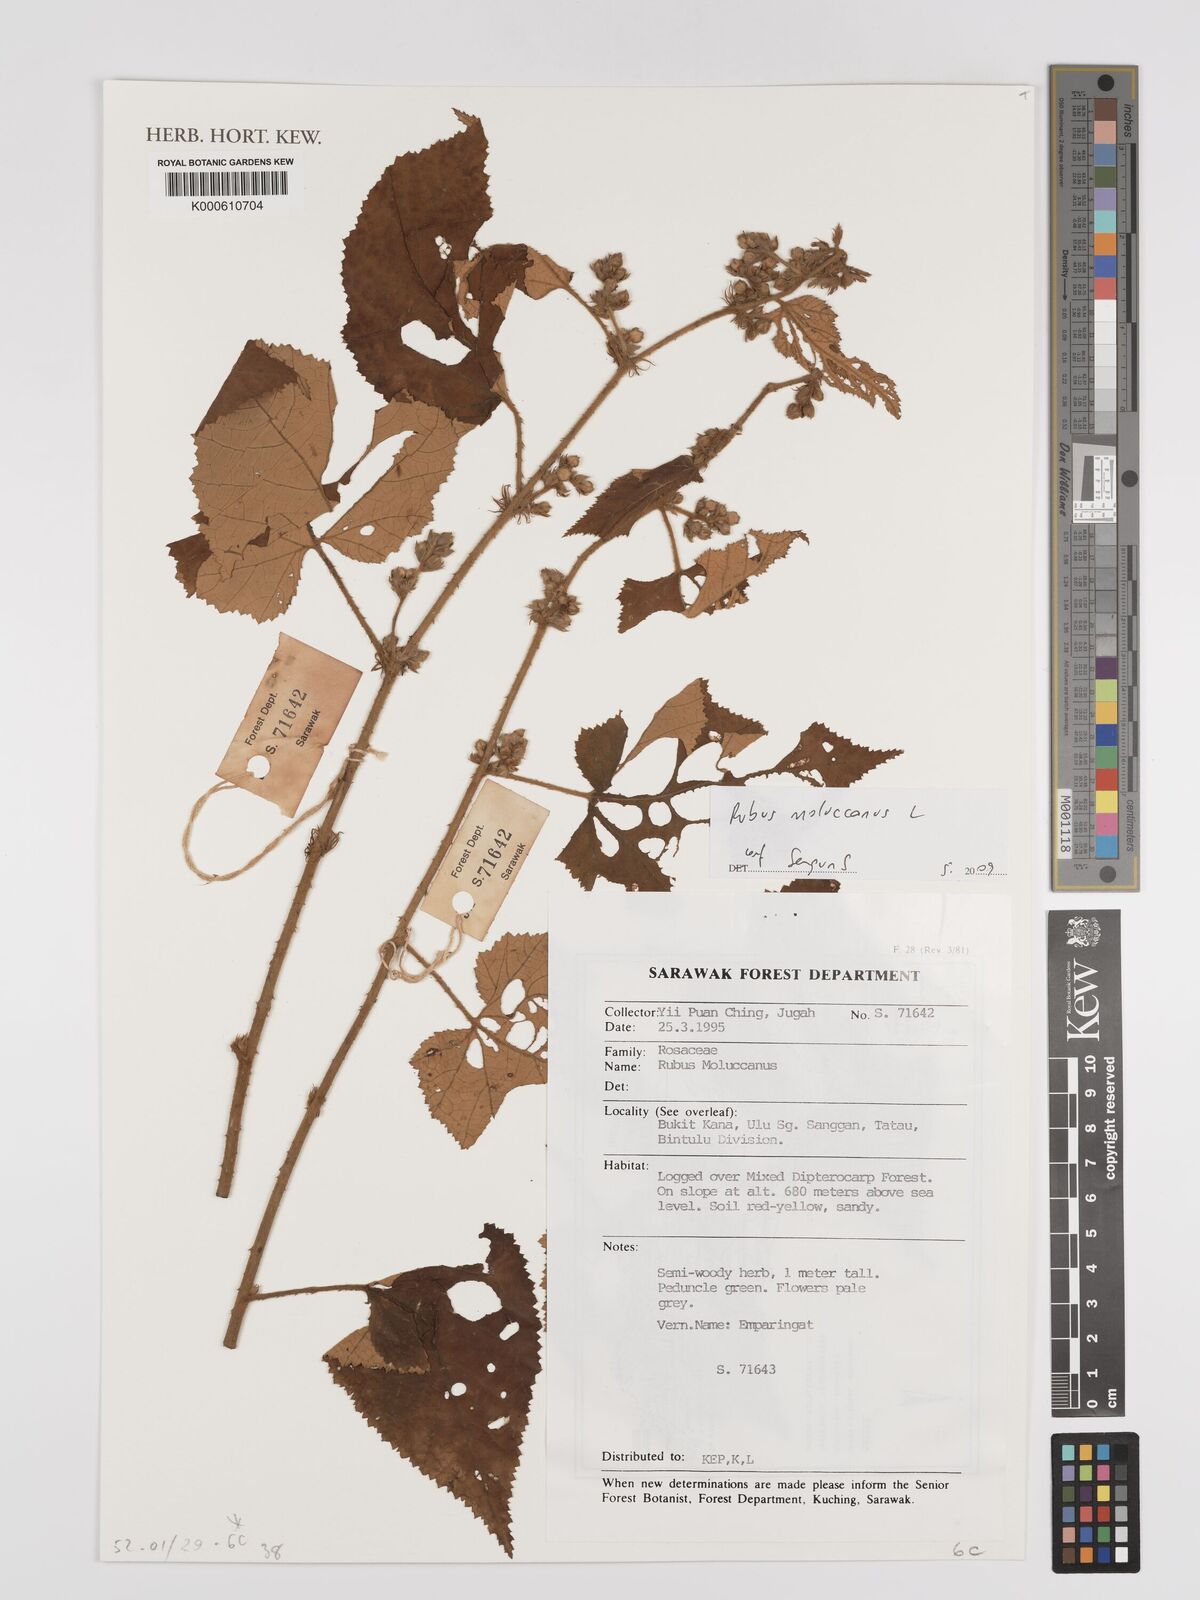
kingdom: Plantae
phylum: Tracheophyta
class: Magnoliopsida
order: Rosales
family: Rosaceae
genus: Rubus
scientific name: Rubus moluccanus
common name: Wild raspberry
